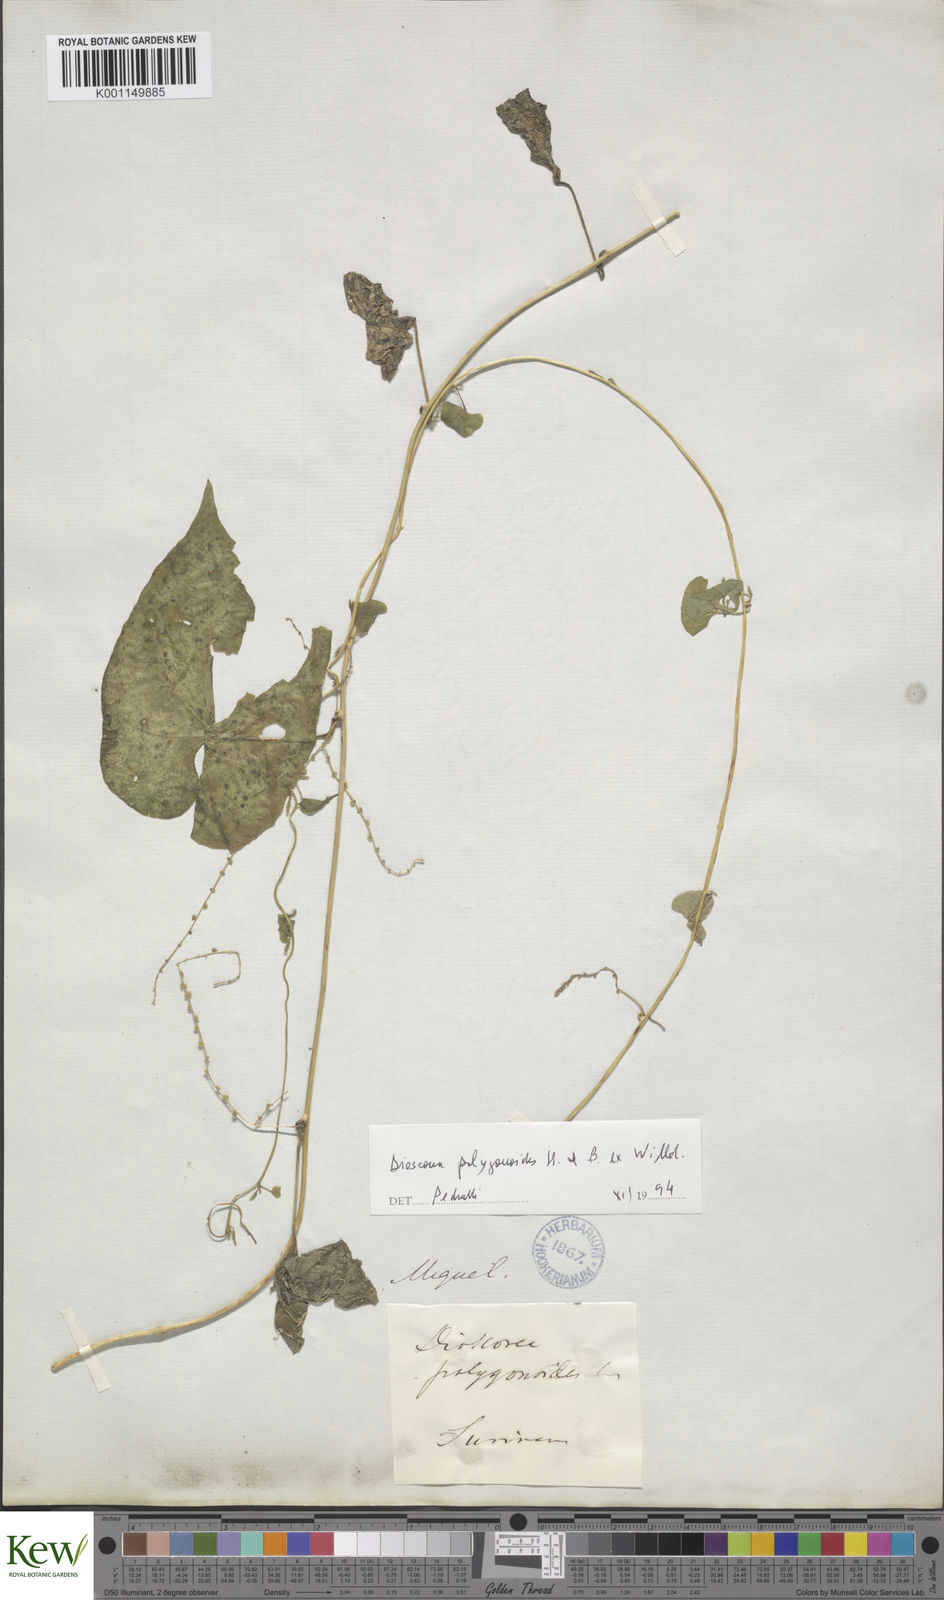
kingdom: Plantae
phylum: Tracheophyta
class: Liliopsida
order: Dioscoreales
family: Dioscoreaceae
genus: Dioscorea
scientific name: Dioscorea polygonoides
